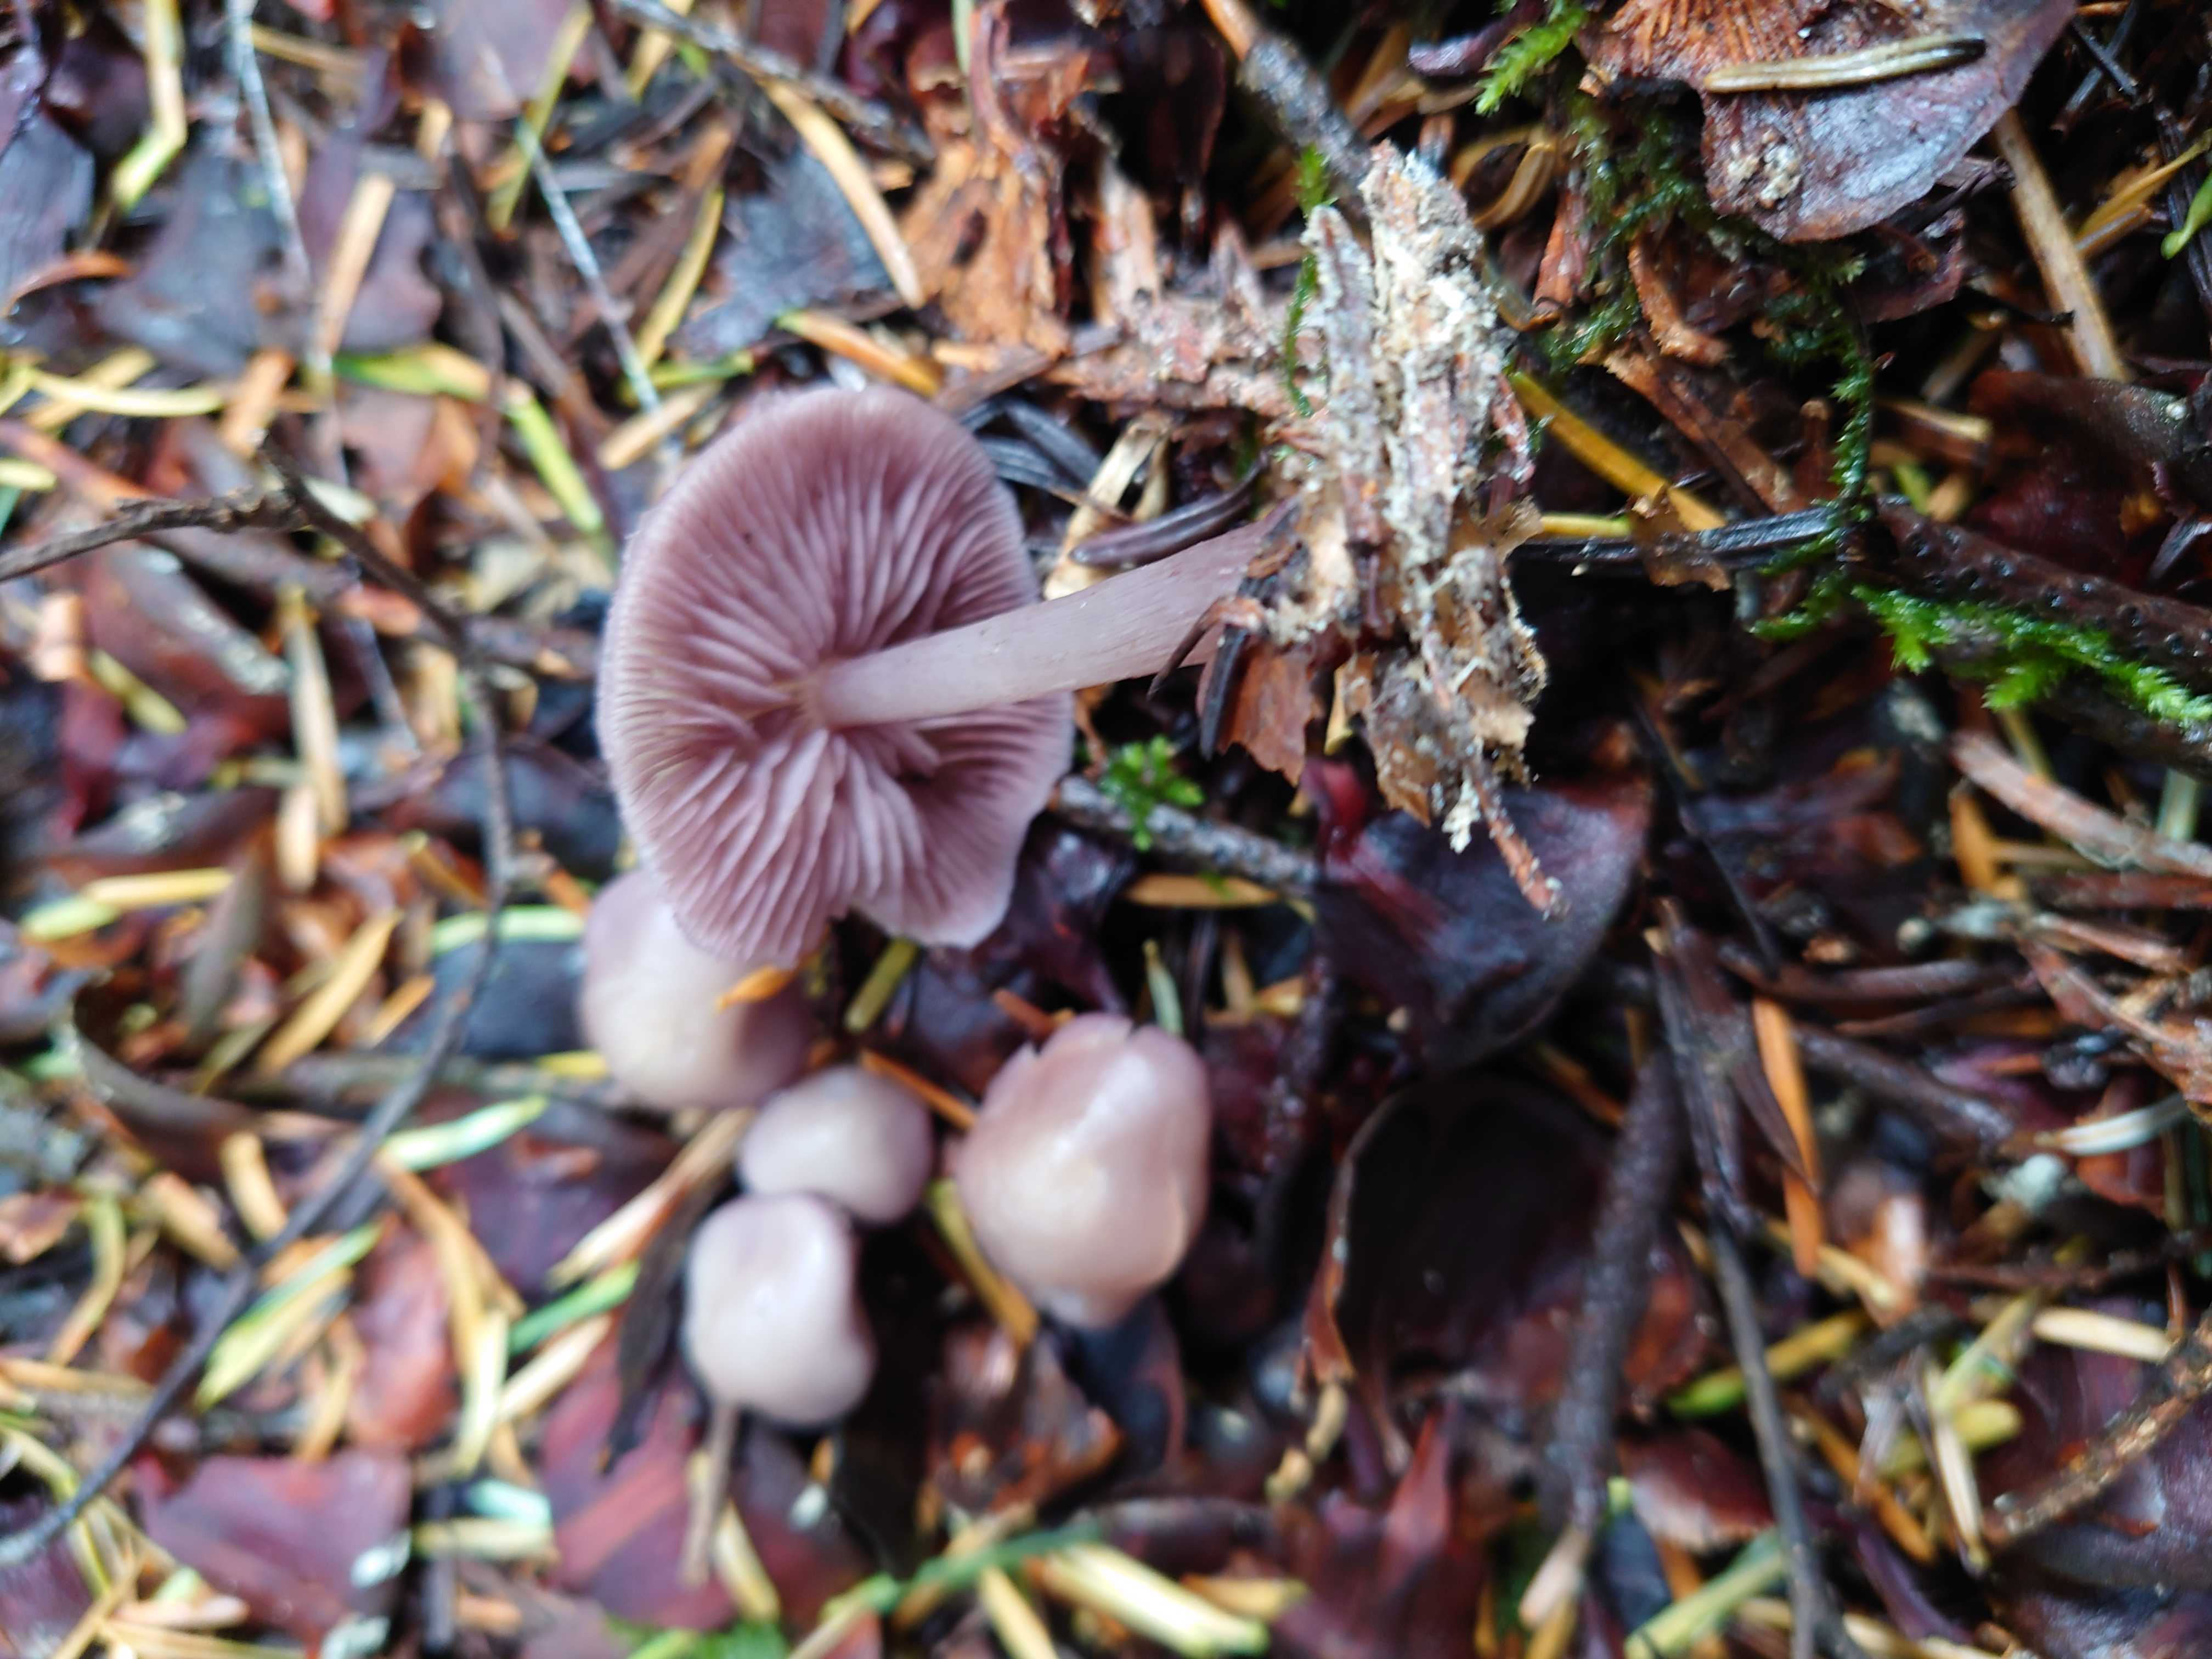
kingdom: Fungi
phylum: Basidiomycota
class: Agaricomycetes
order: Agaricales
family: Mycenaceae
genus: Mycena
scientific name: Mycena pelianthina
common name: mørkbladet huesvamp
